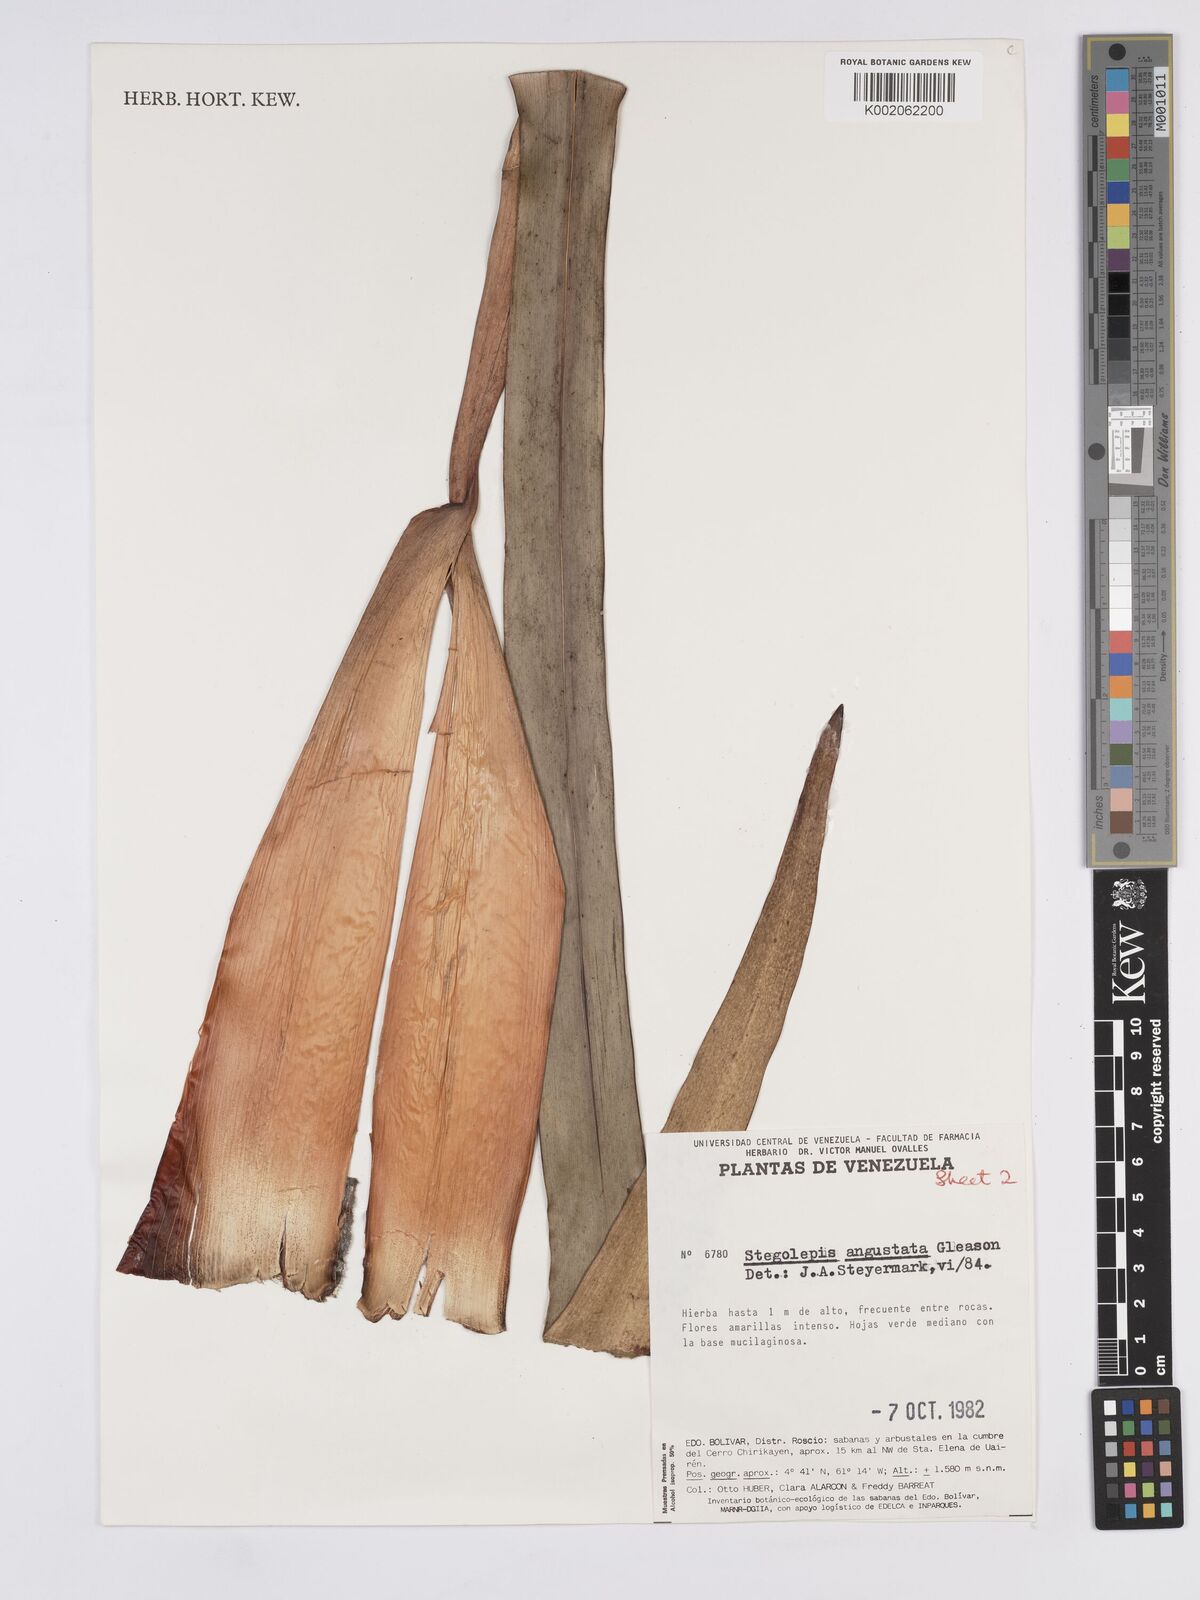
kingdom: Plantae
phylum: Tracheophyta
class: Liliopsida
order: Poales
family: Rapateaceae
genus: Stegolepis
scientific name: Stegolepis angustata
